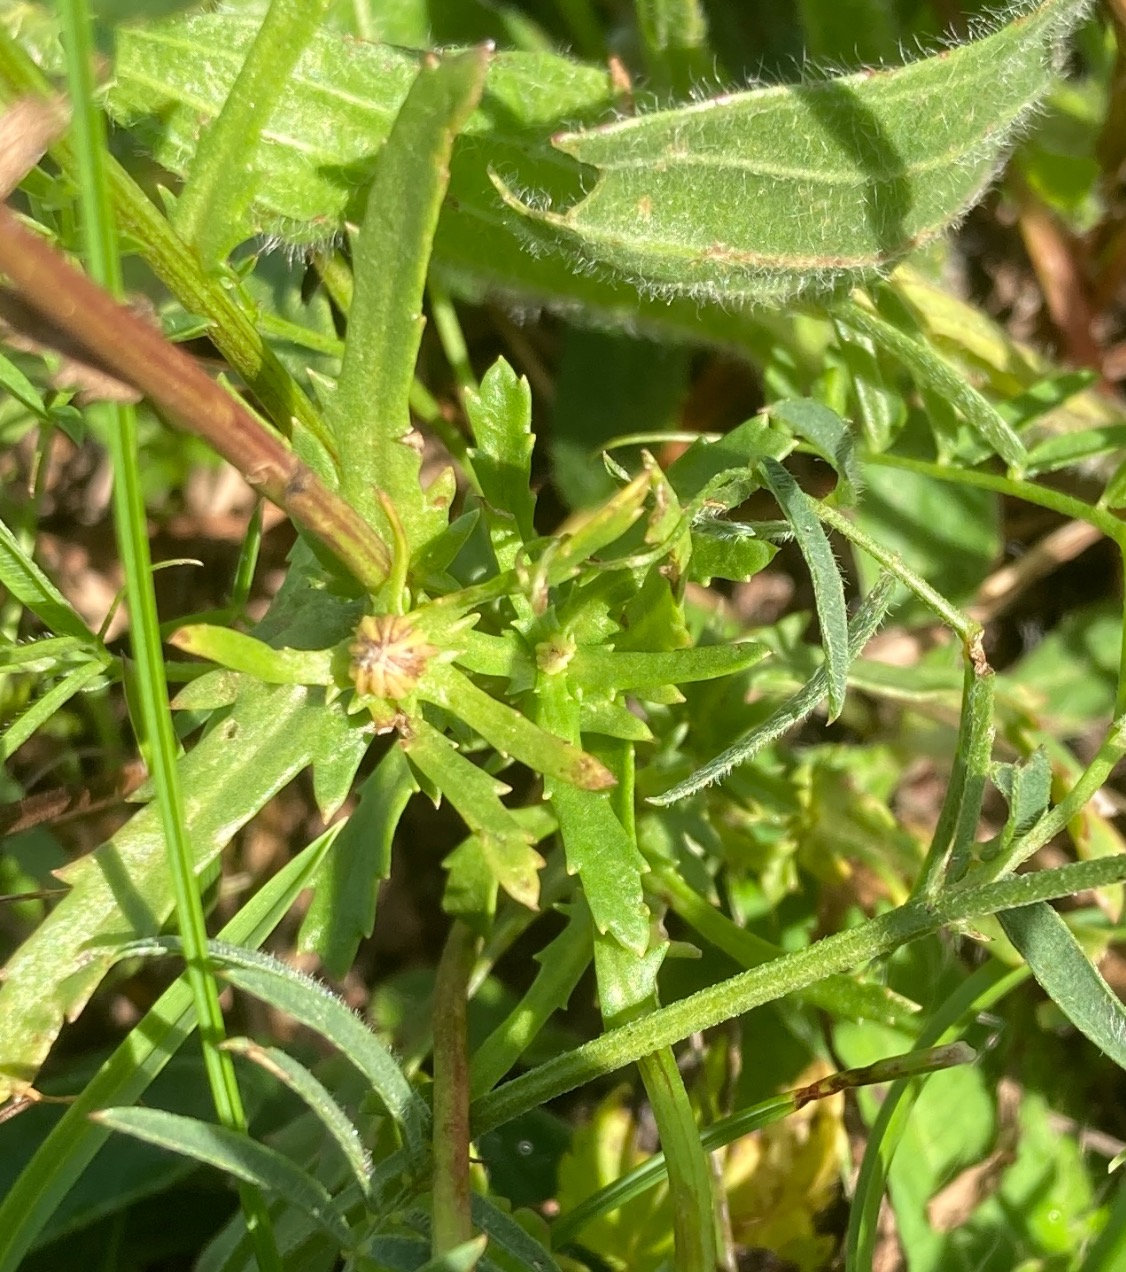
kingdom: Plantae
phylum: Tracheophyta
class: Magnoliopsida
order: Asterales
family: Asteraceae
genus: Leucanthemum
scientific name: Leucanthemum vulgare
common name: Hvid okseøje
